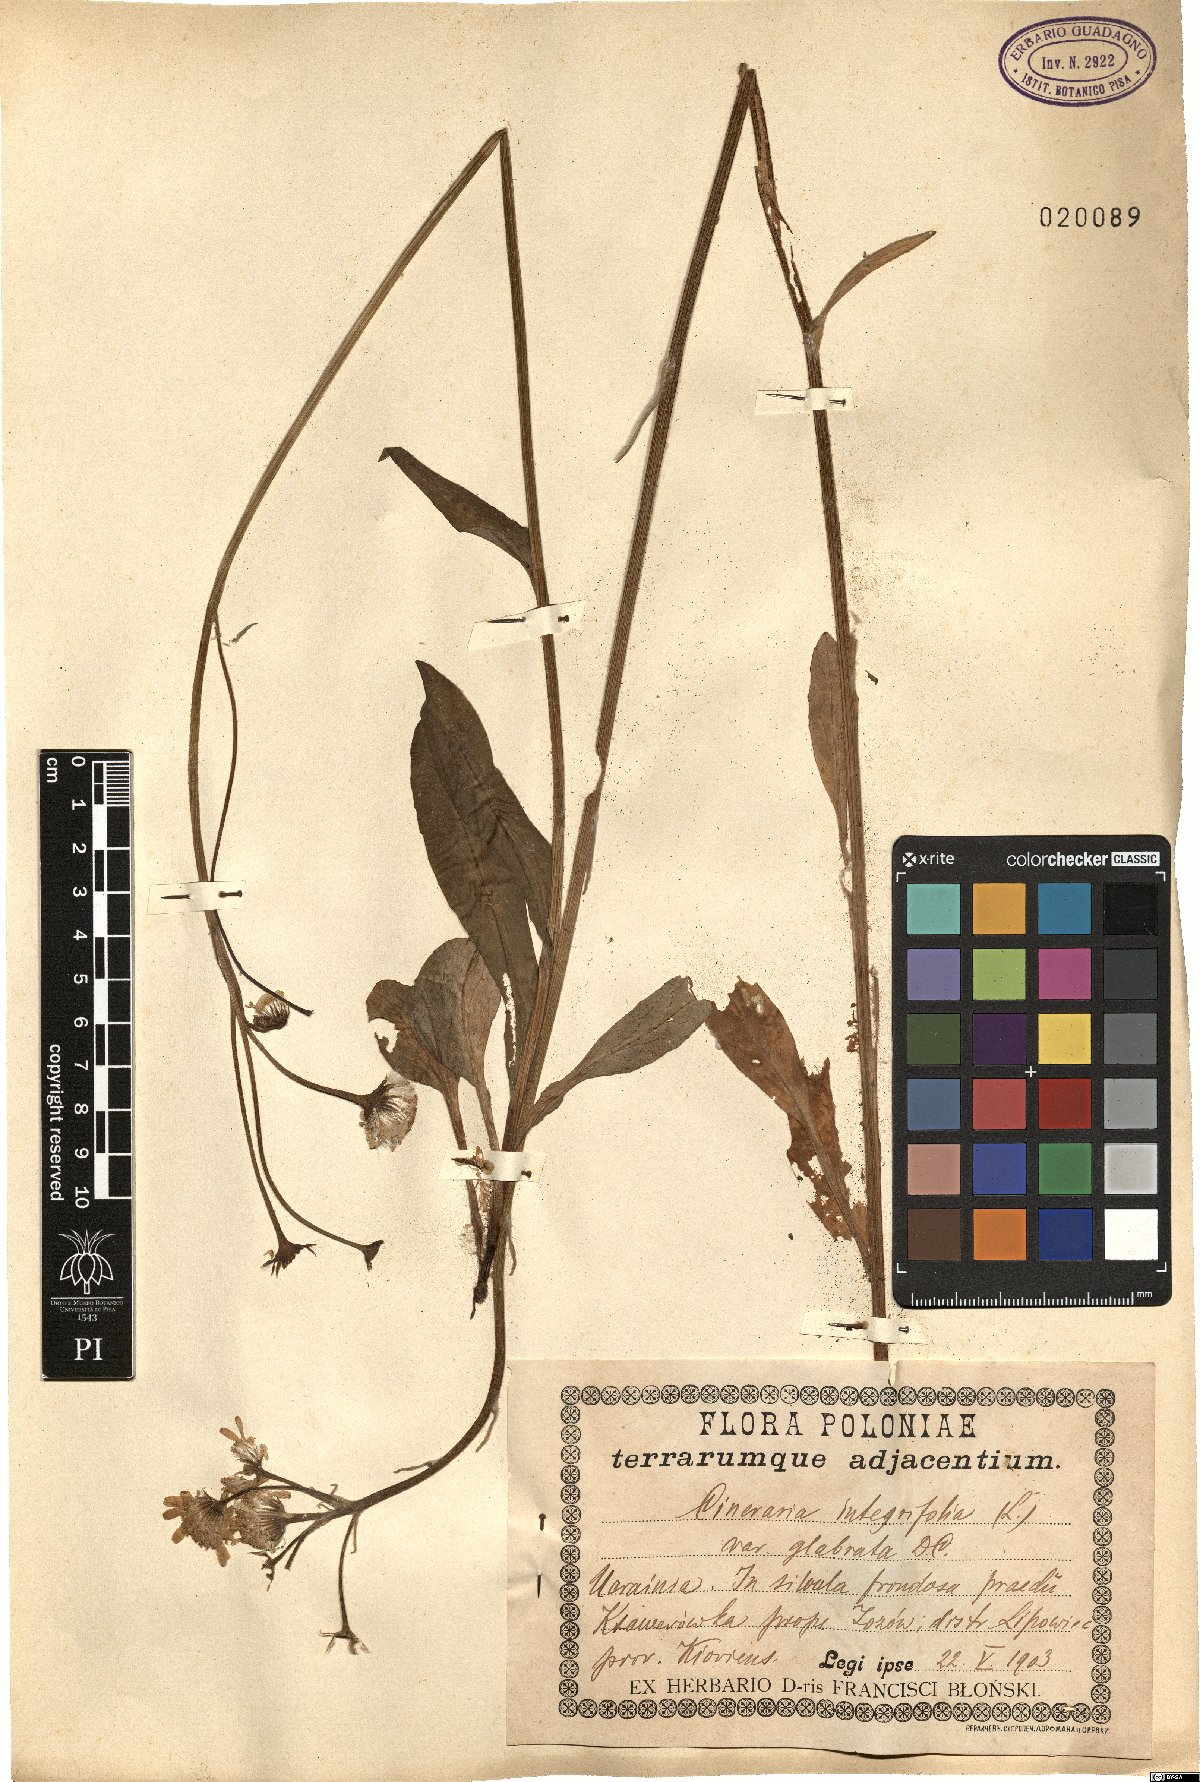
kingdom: Plantae
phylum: Tracheophyta
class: Magnoliopsida
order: Asterales
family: Asteraceae
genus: Tephroseris
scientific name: Tephroseris integrifolia
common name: Field fleawort
